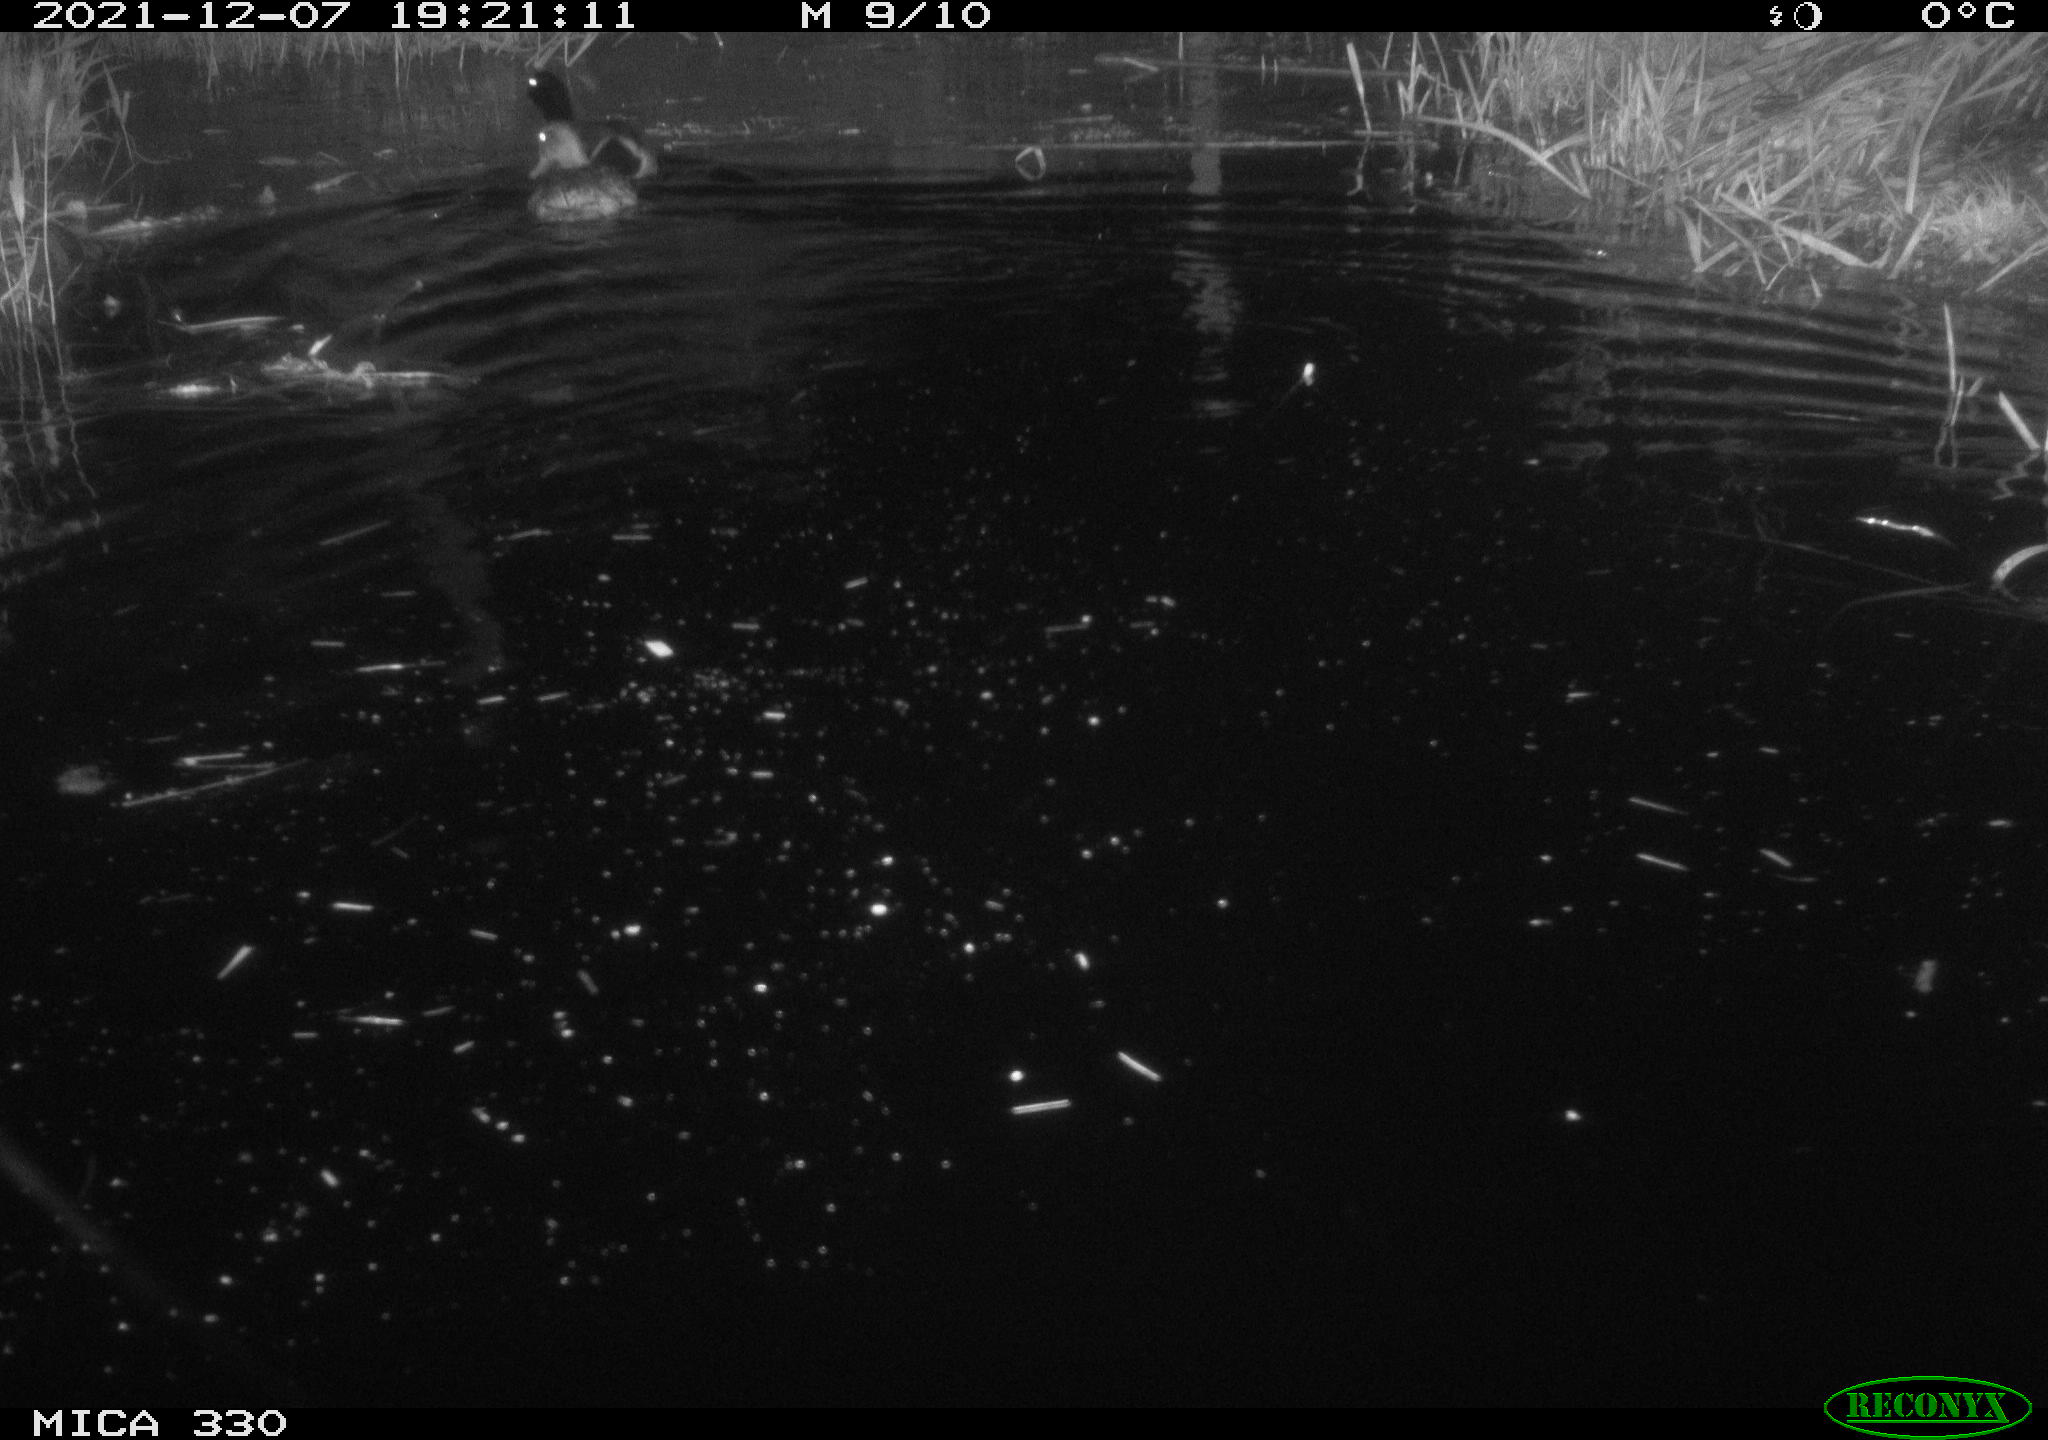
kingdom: Animalia
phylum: Chordata
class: Aves
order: Anseriformes
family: Anatidae
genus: Anas
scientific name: Anas platyrhynchos
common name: Mallard
